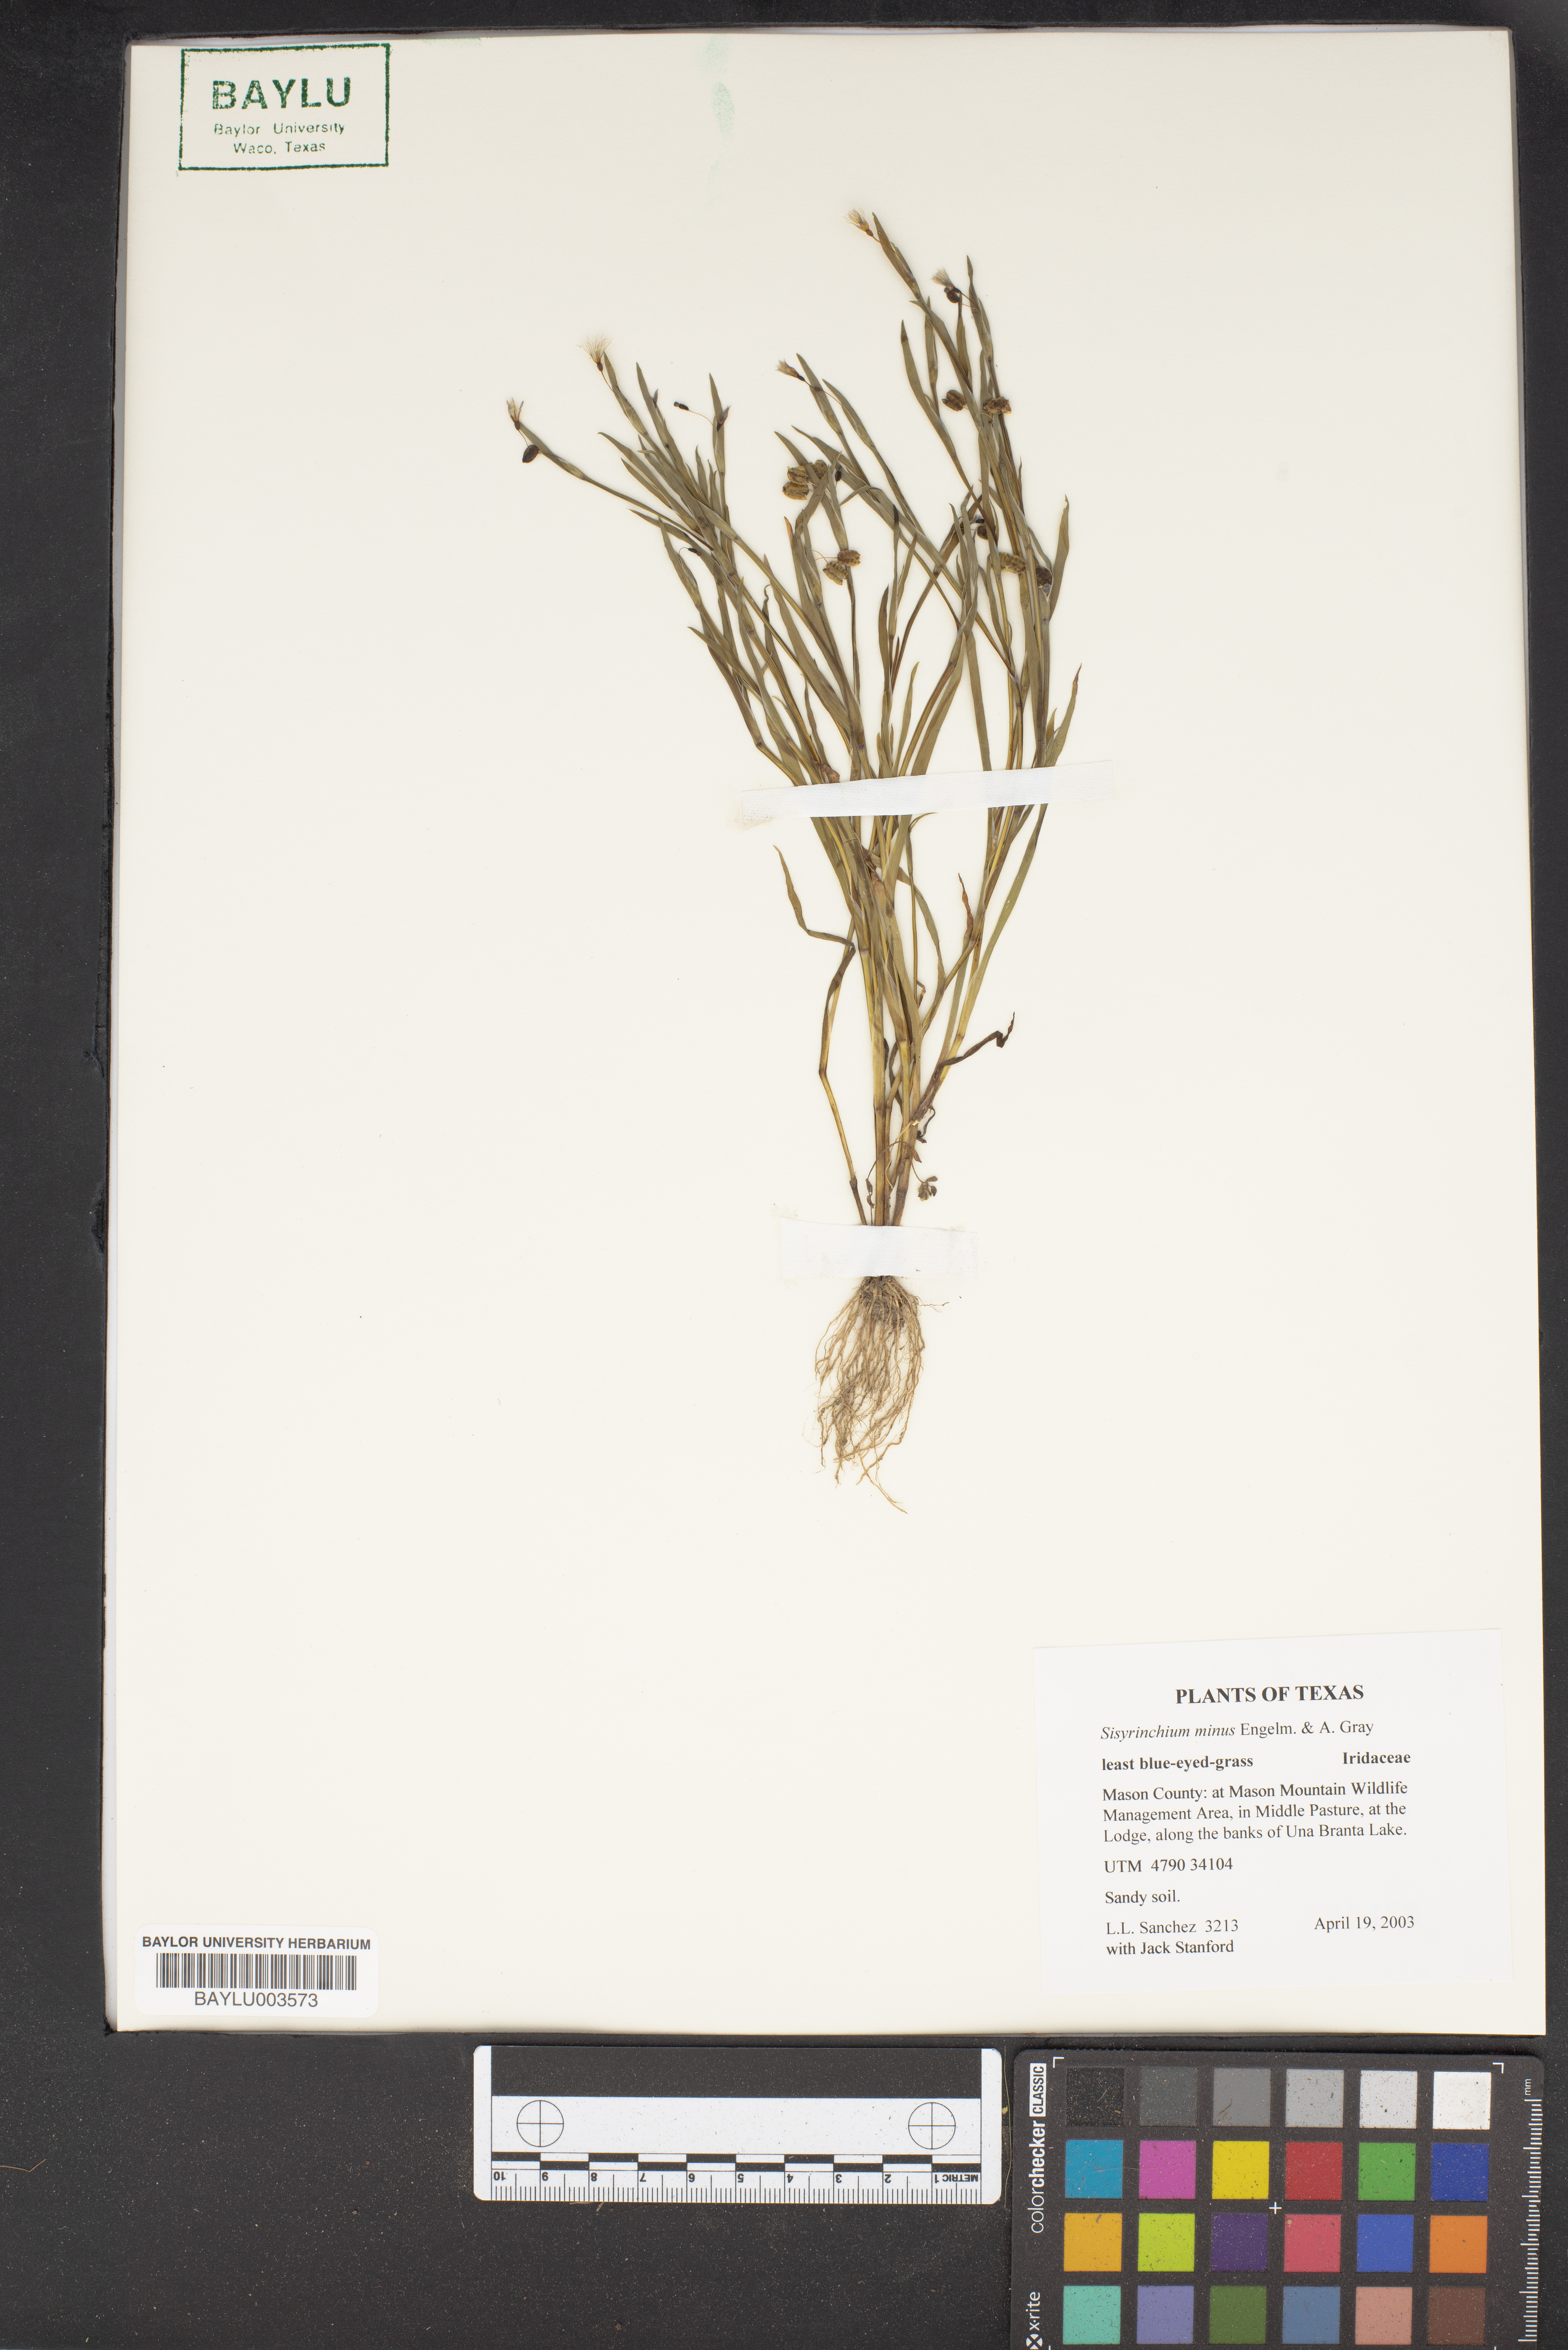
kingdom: Plantae
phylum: Tracheophyta
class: Liliopsida
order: Asparagales
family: Iridaceae
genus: Sisyrinchium
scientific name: Sisyrinchium minus
